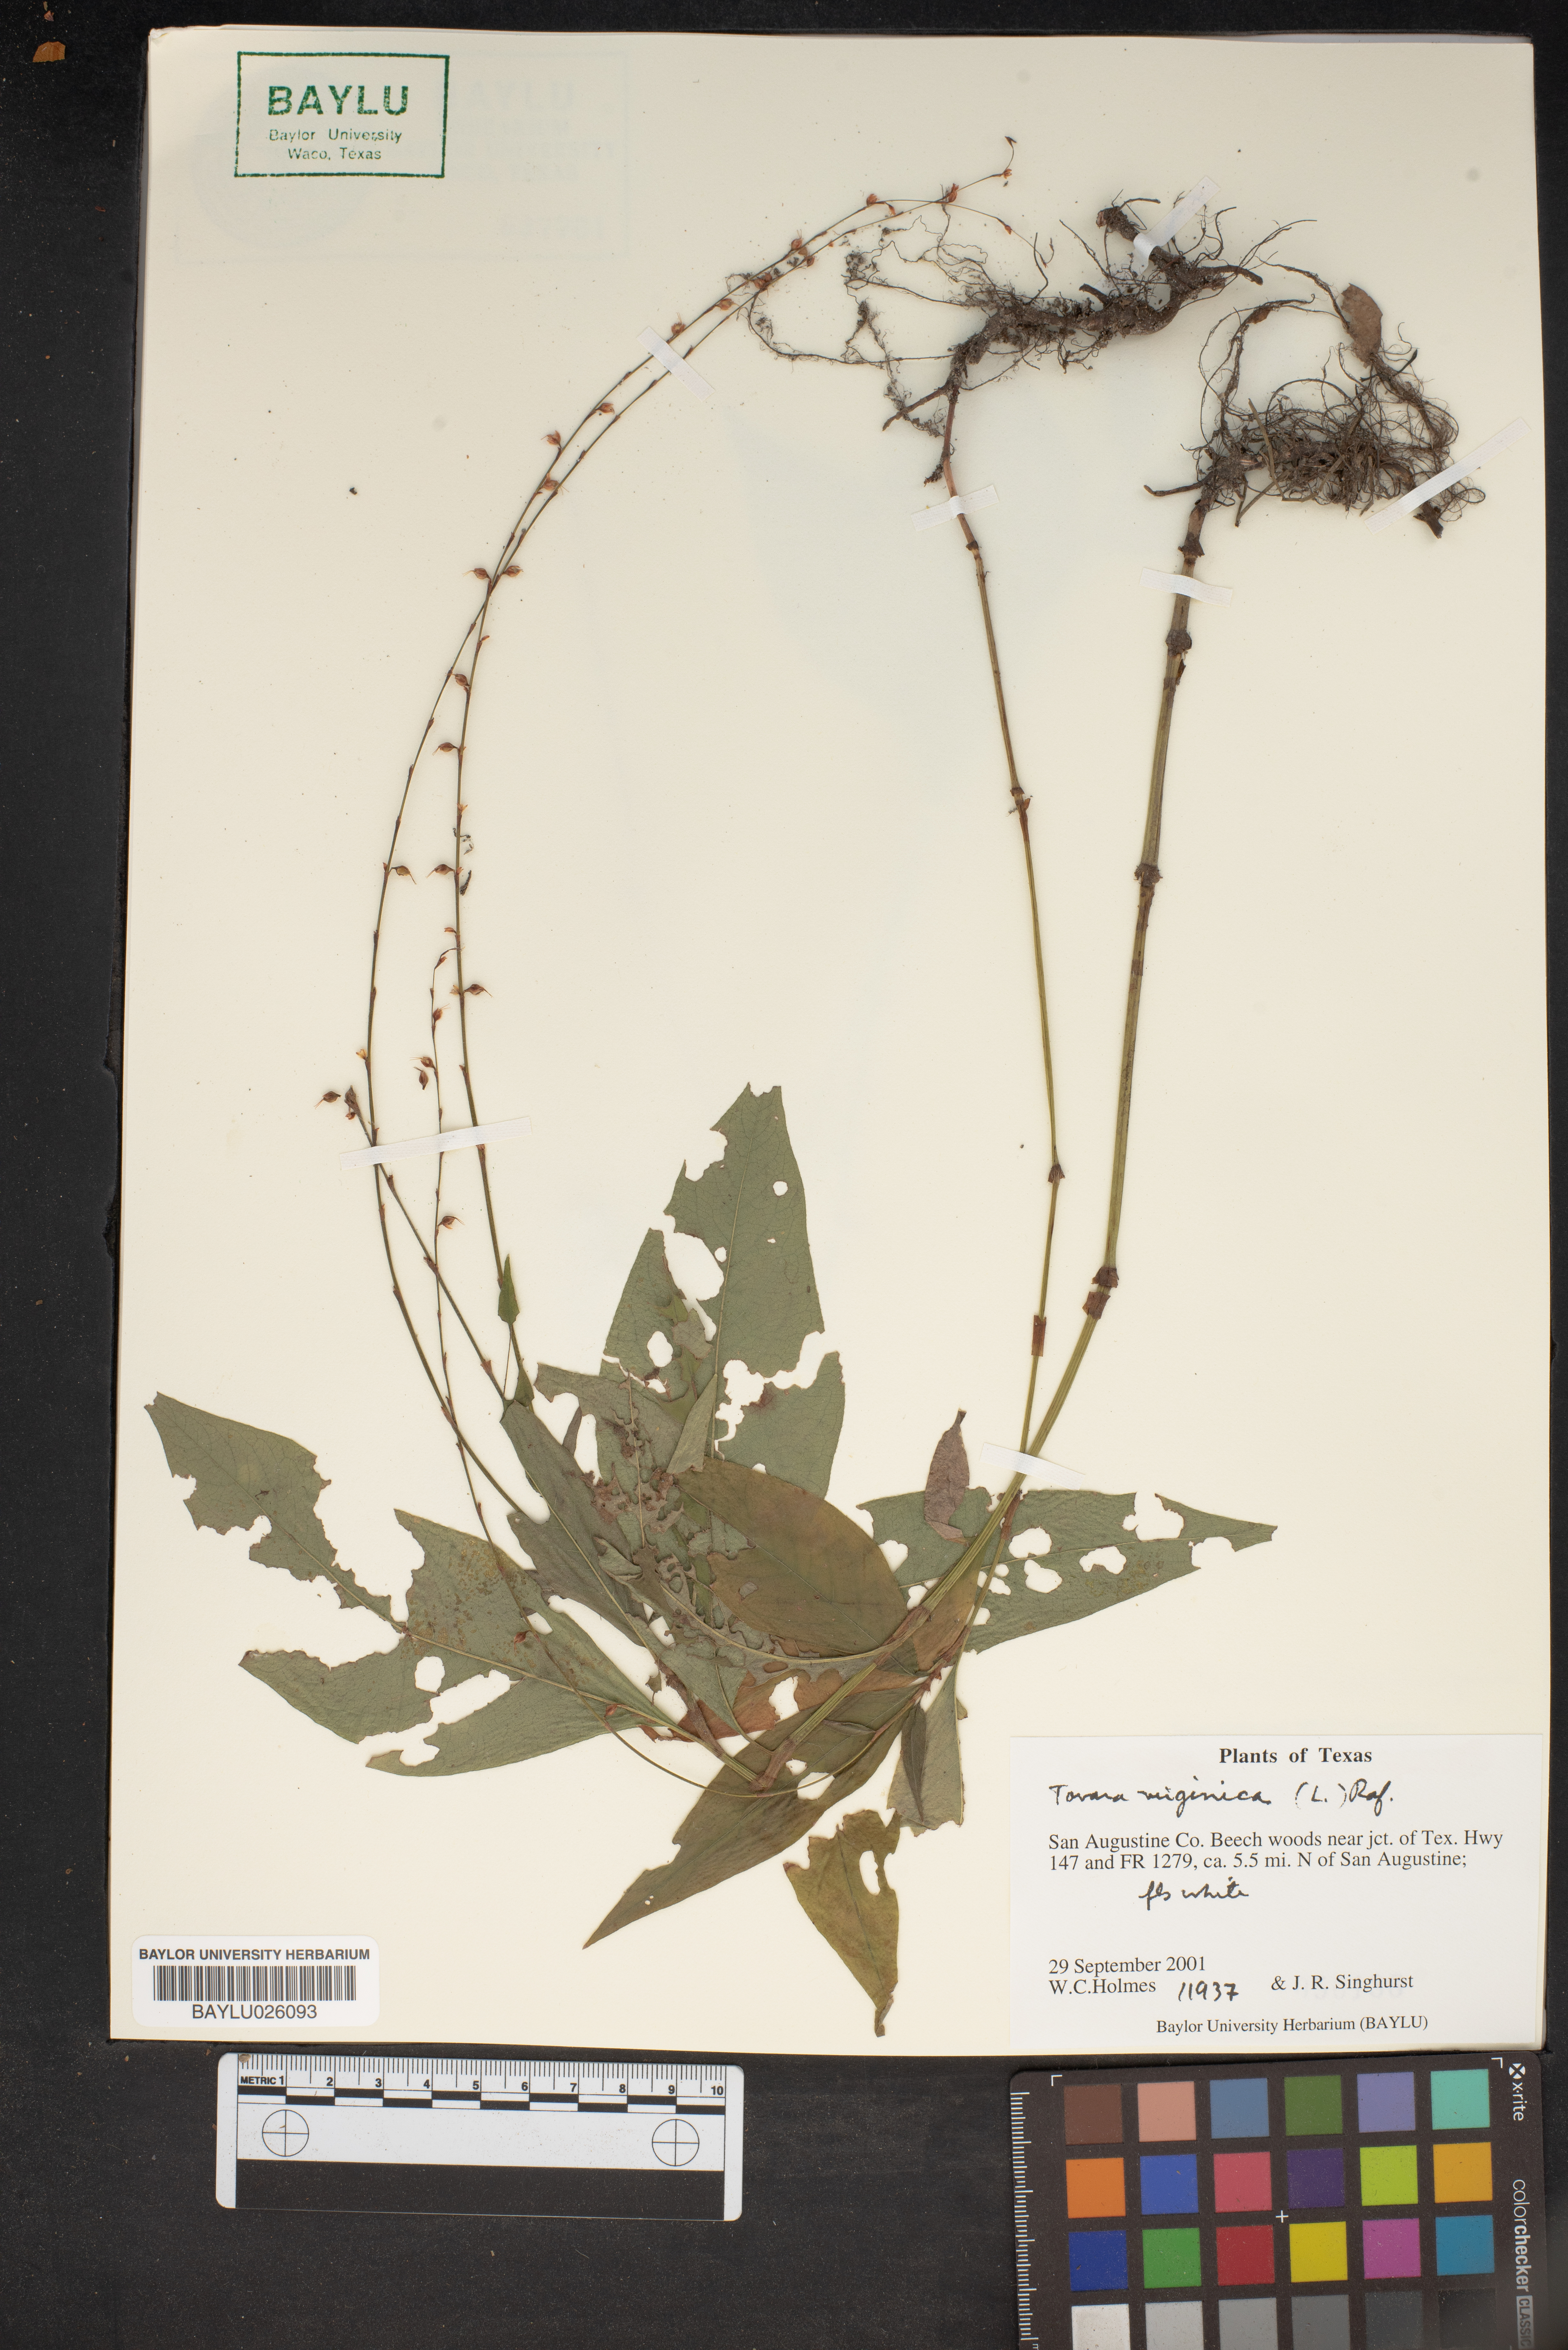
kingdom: Plantae
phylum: Tracheophyta
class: Magnoliopsida
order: Caryophyllales
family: Polygonaceae
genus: Persicaria
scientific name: Persicaria virginiana
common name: Jumpseed
